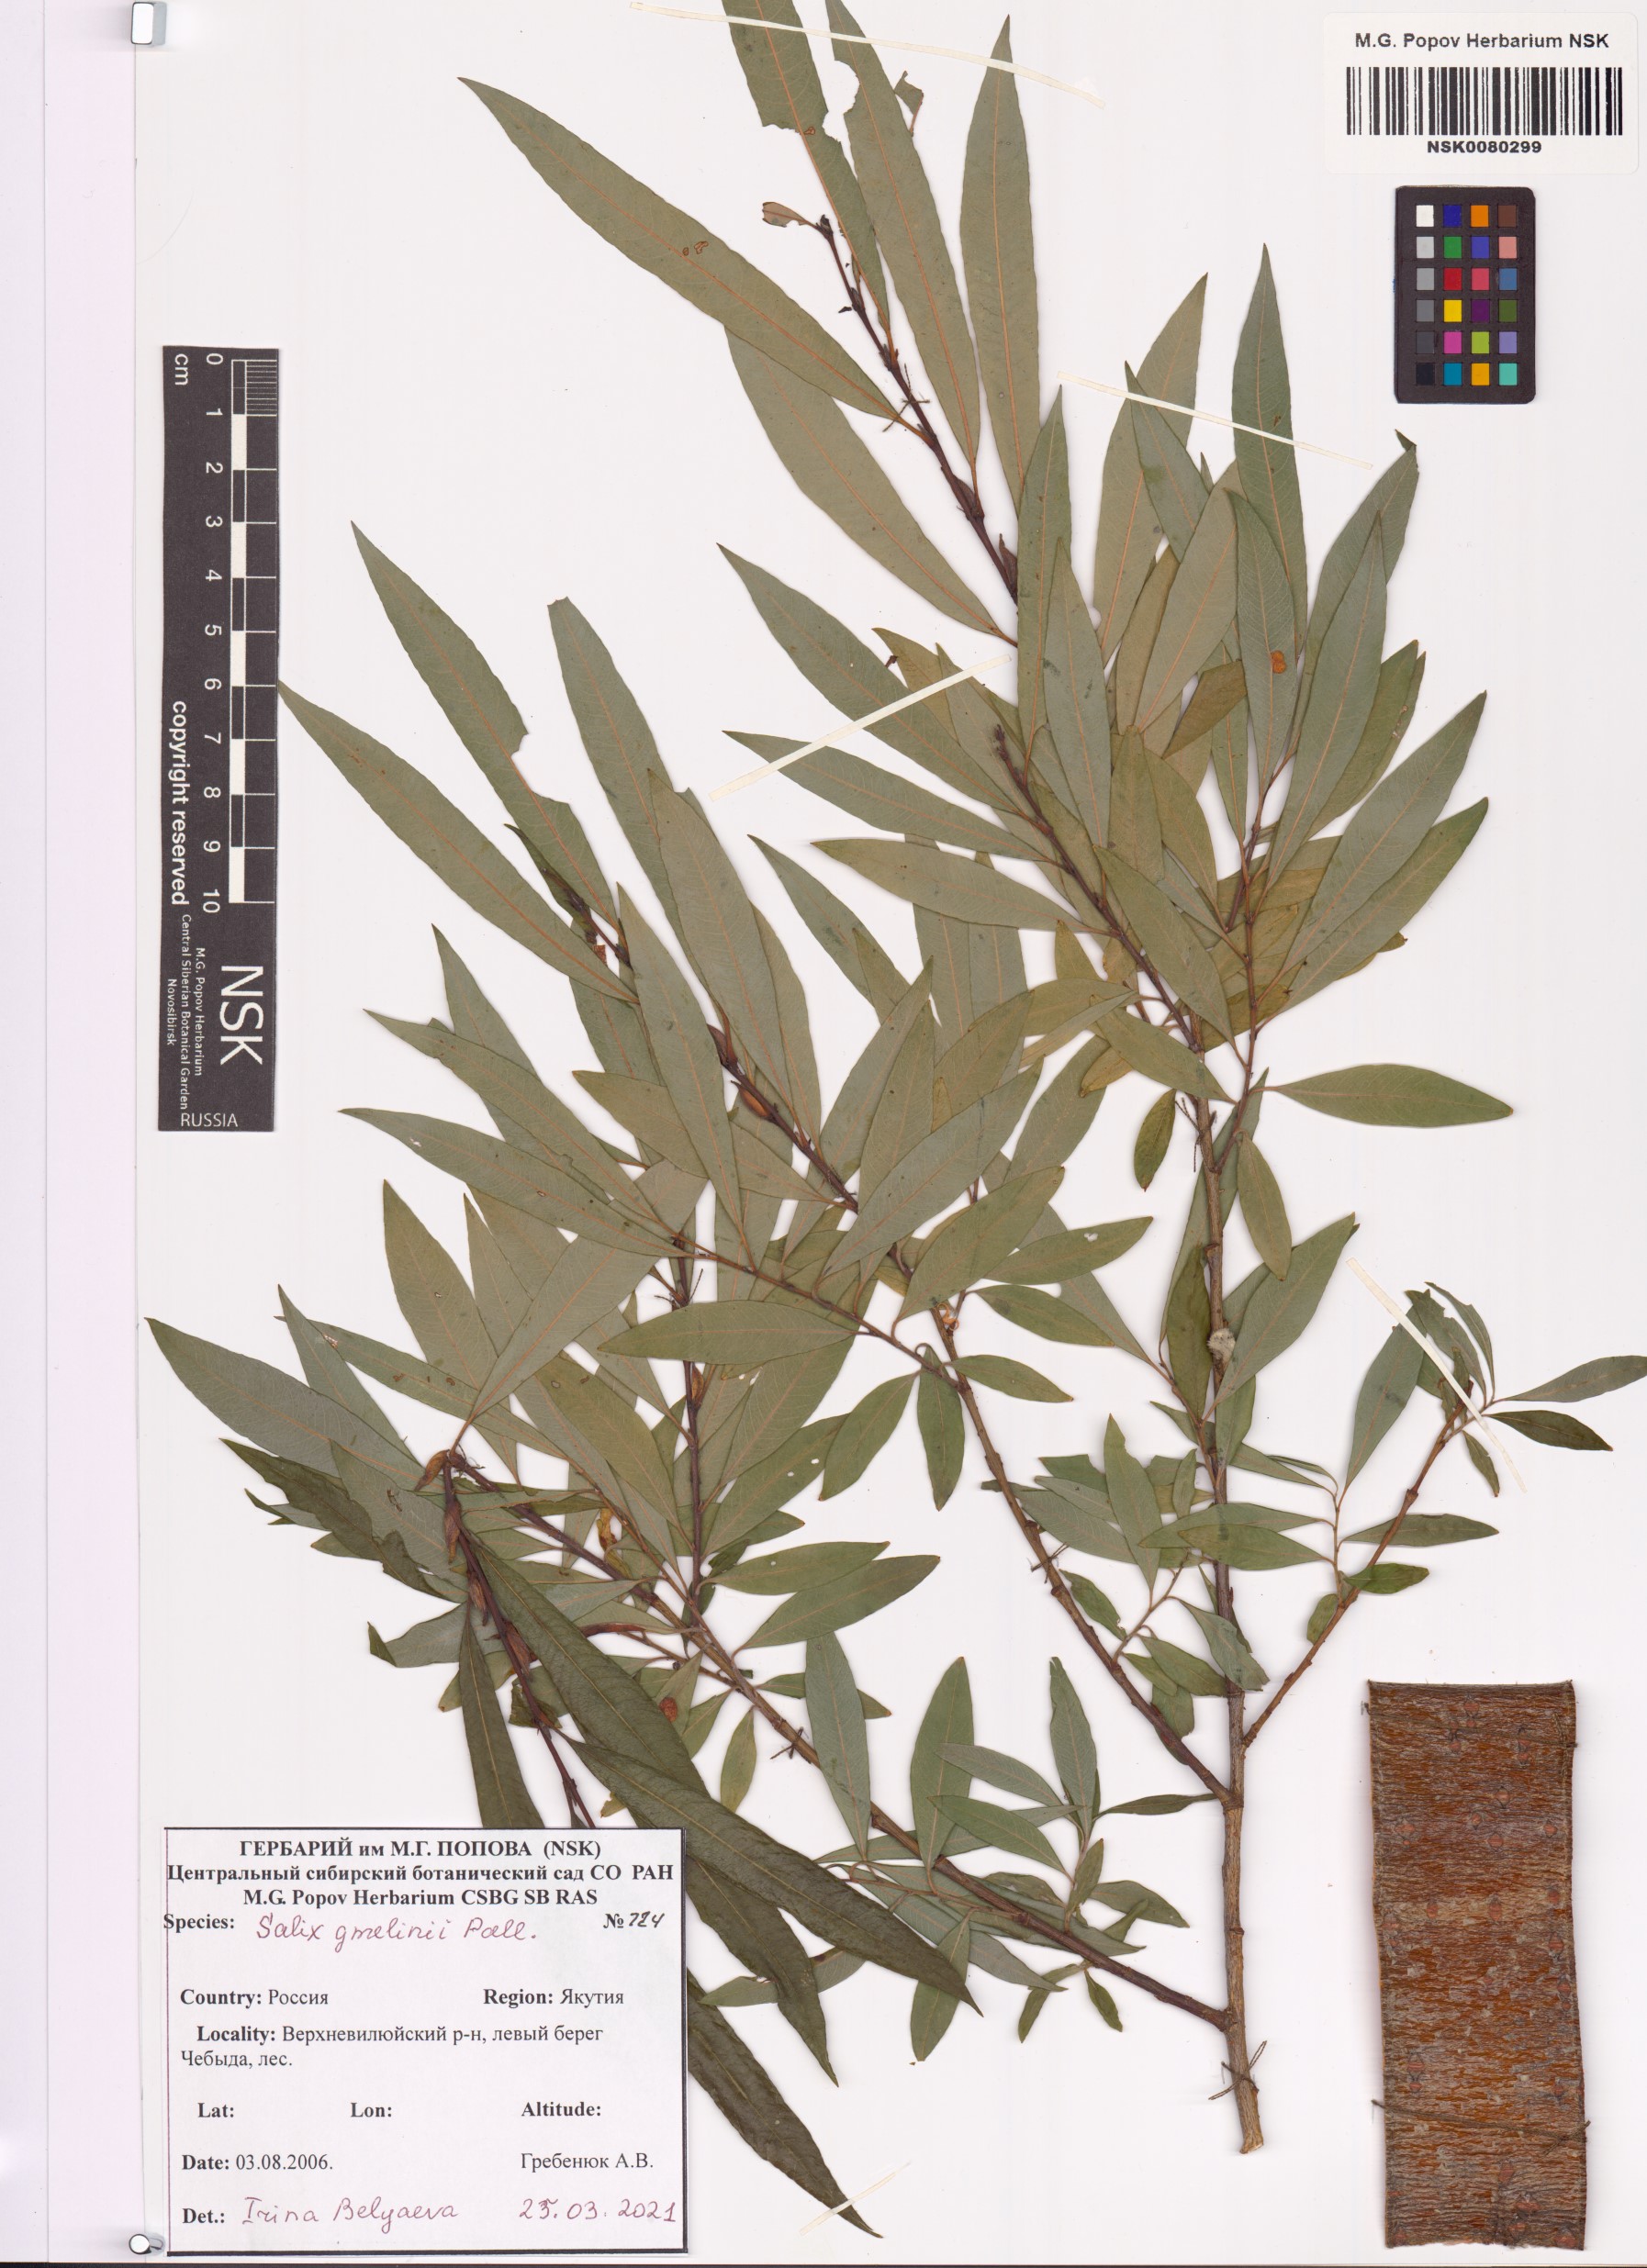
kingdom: Plantae
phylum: Tracheophyta
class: Magnoliopsida
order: Malpighiales
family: Salicaceae
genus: Salix
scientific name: Salix gmelinii
